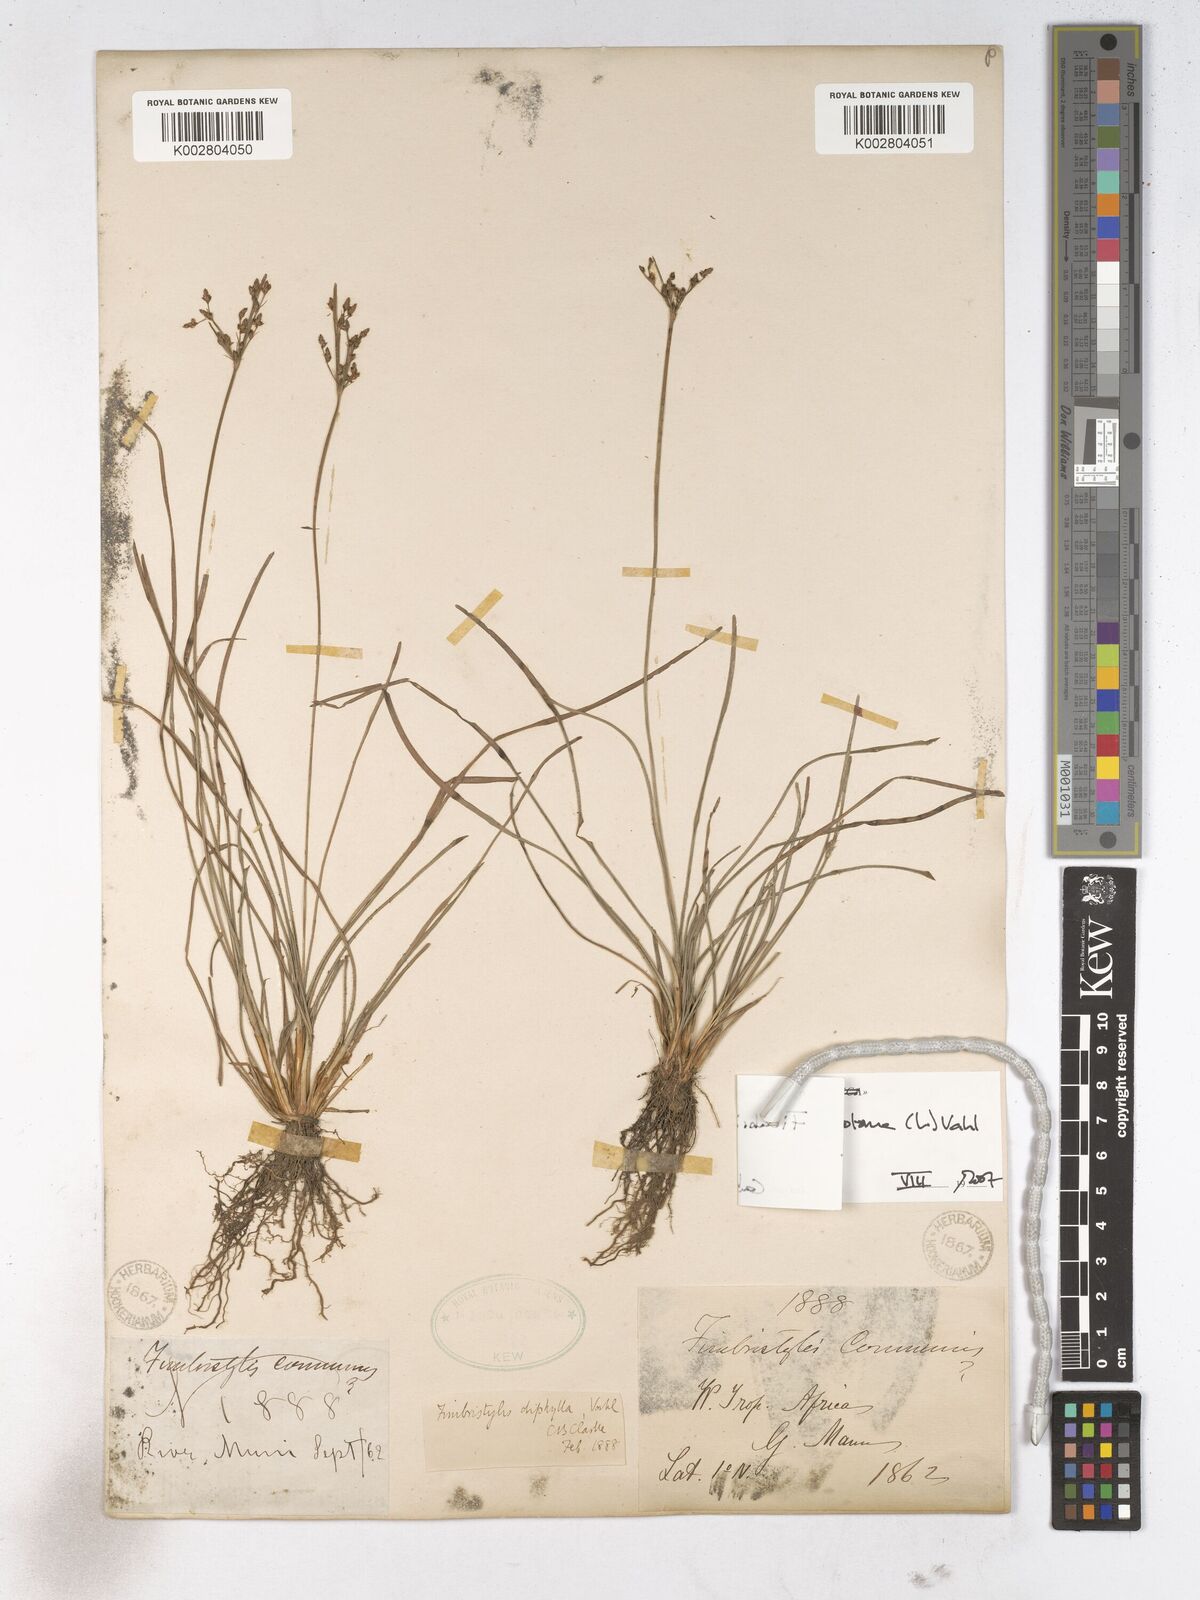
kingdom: Plantae
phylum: Tracheophyta
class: Liliopsida
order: Poales
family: Cyperaceae
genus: Fimbristylis
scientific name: Fimbristylis dichotoma
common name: Forked fimbry
